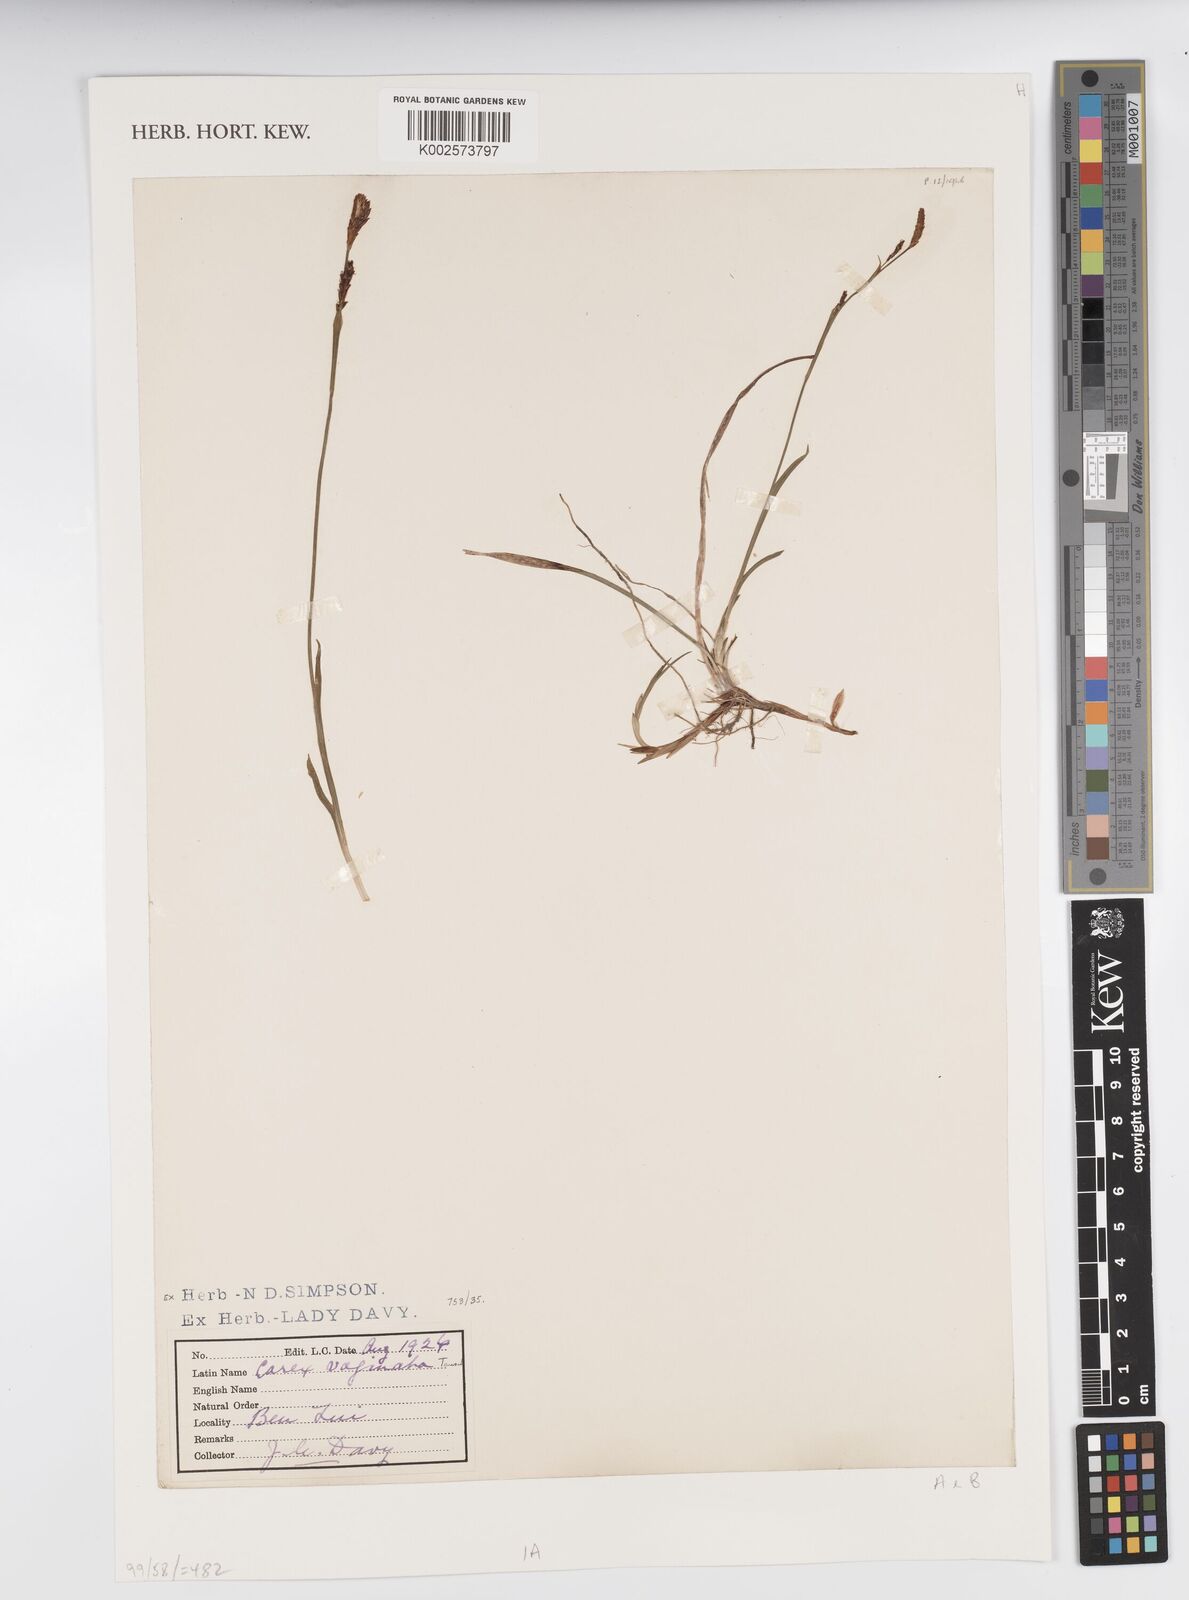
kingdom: Plantae
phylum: Tracheophyta
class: Liliopsida
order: Poales
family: Cyperaceae
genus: Carex
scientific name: Carex vaginata
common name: Sheathed sedge
